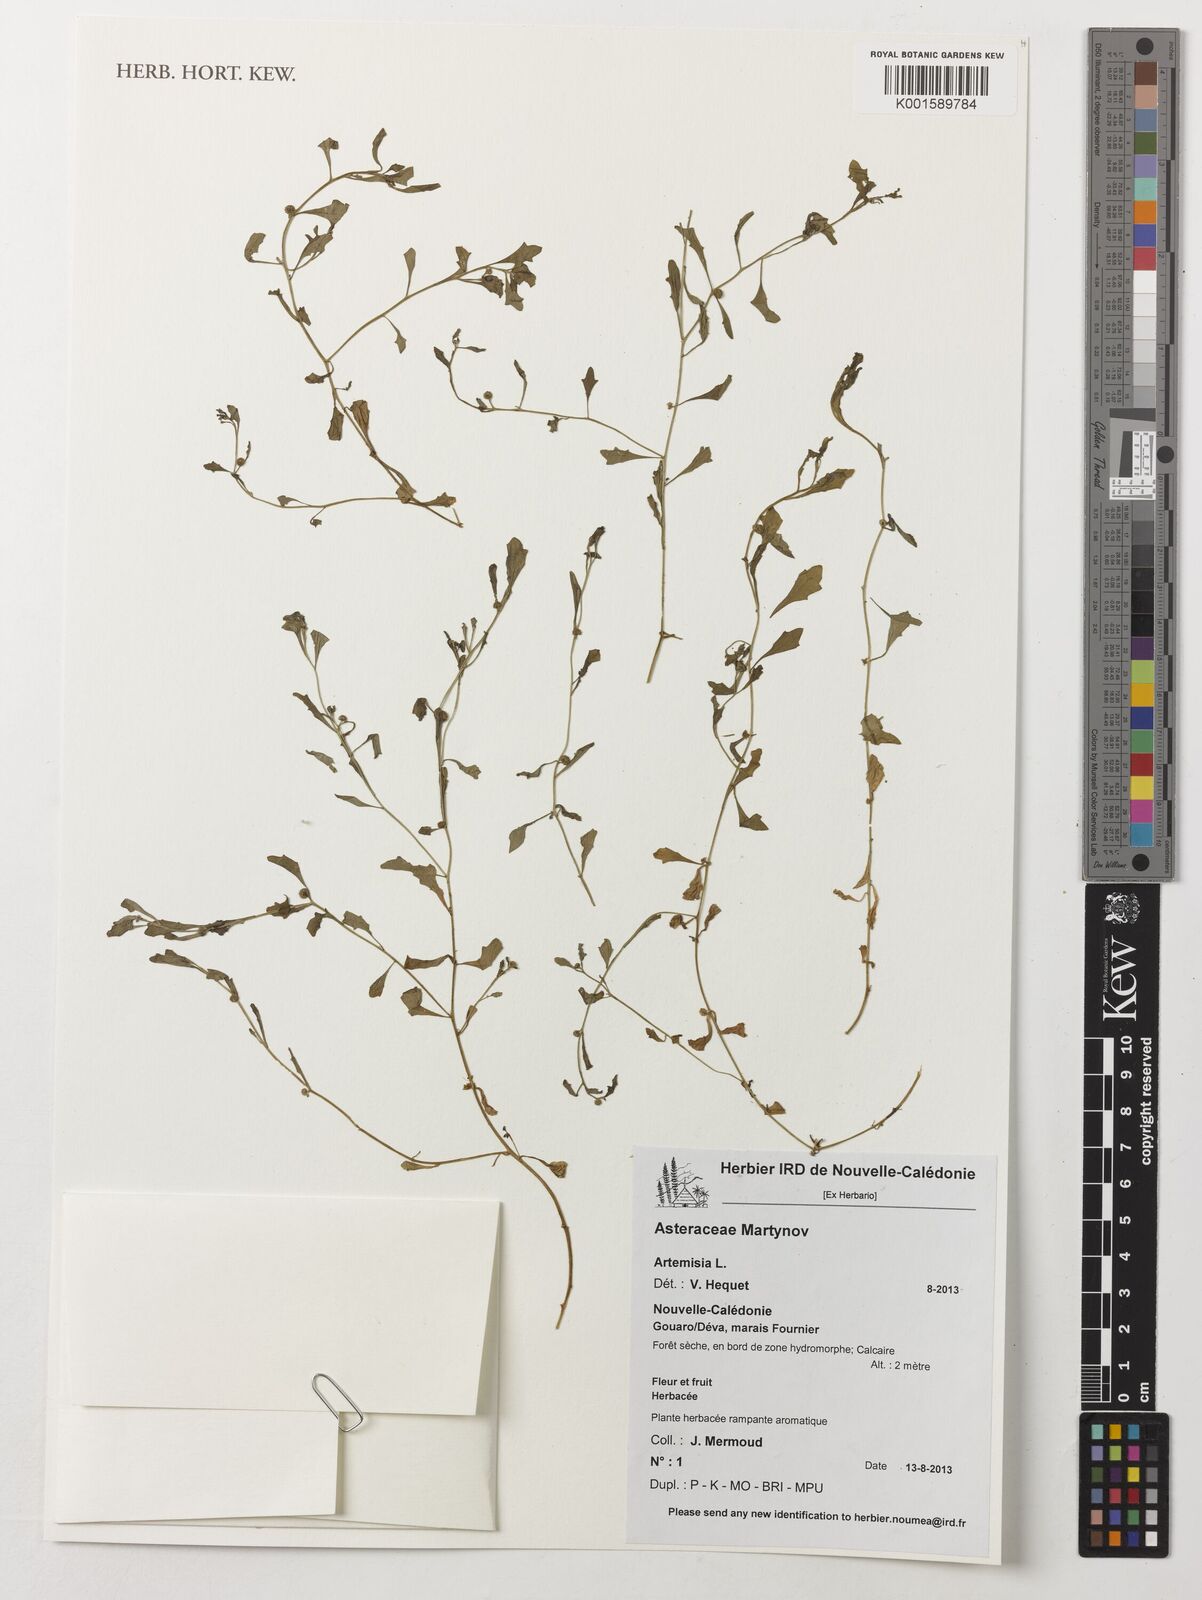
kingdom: Plantae
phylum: Tracheophyta
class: Magnoliopsida
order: Asterales
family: Asteraceae
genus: Artemisia
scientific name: Artemisia
